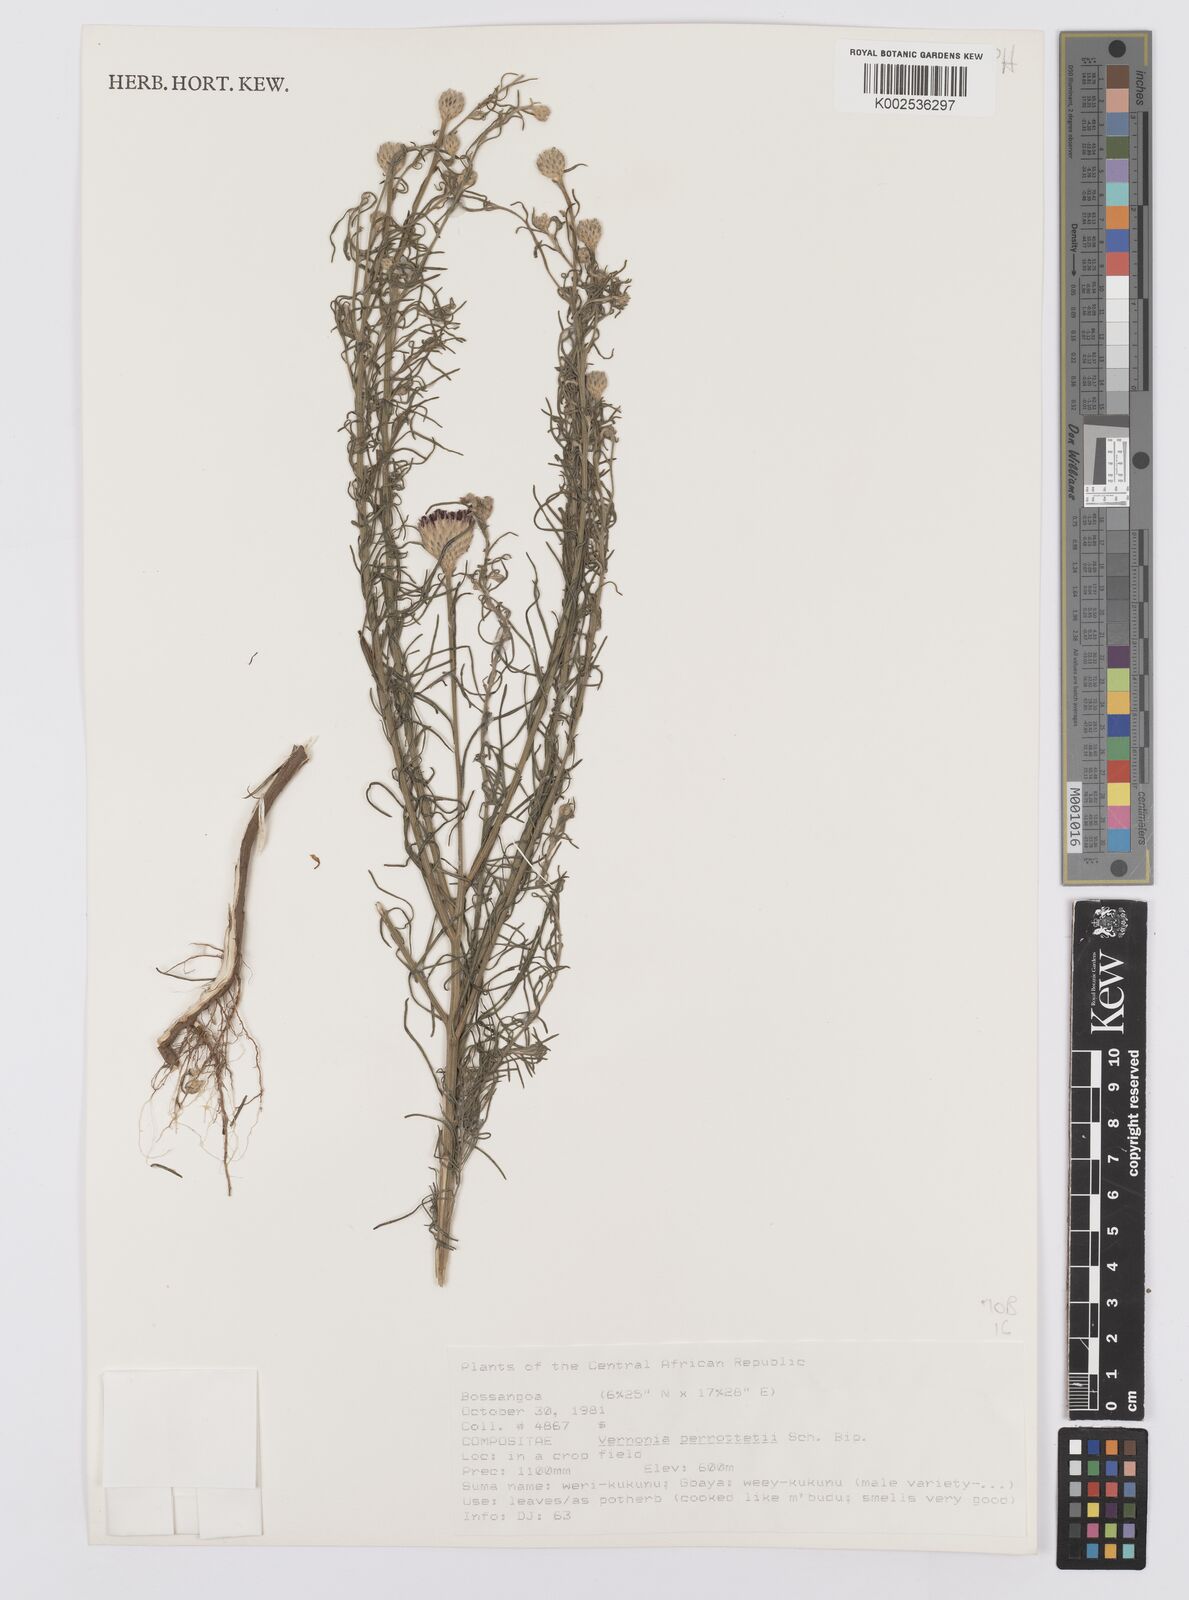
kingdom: Plantae
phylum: Tracheophyta
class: Magnoliopsida
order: Asterales
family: Asteraceae
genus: Crystallopollen
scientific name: Crystallopollen serratuloides
